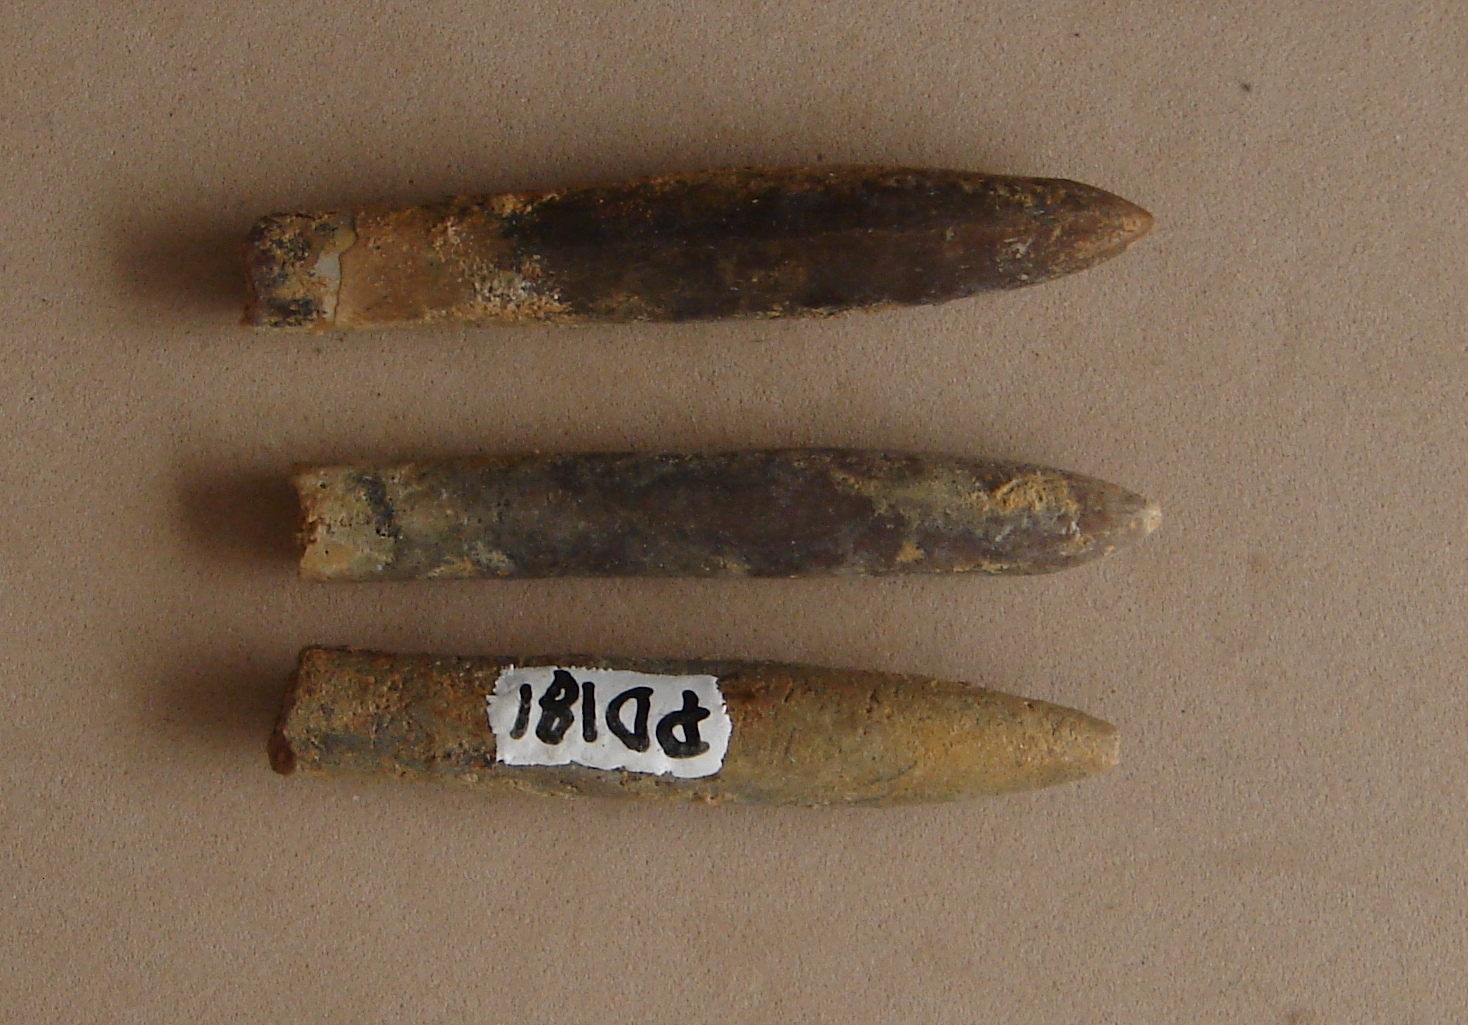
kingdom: Animalia
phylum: Mollusca
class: Cephalopoda
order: Belemnitida
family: Passaloteuthidae
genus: Pseudohastites
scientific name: Pseudohastites
